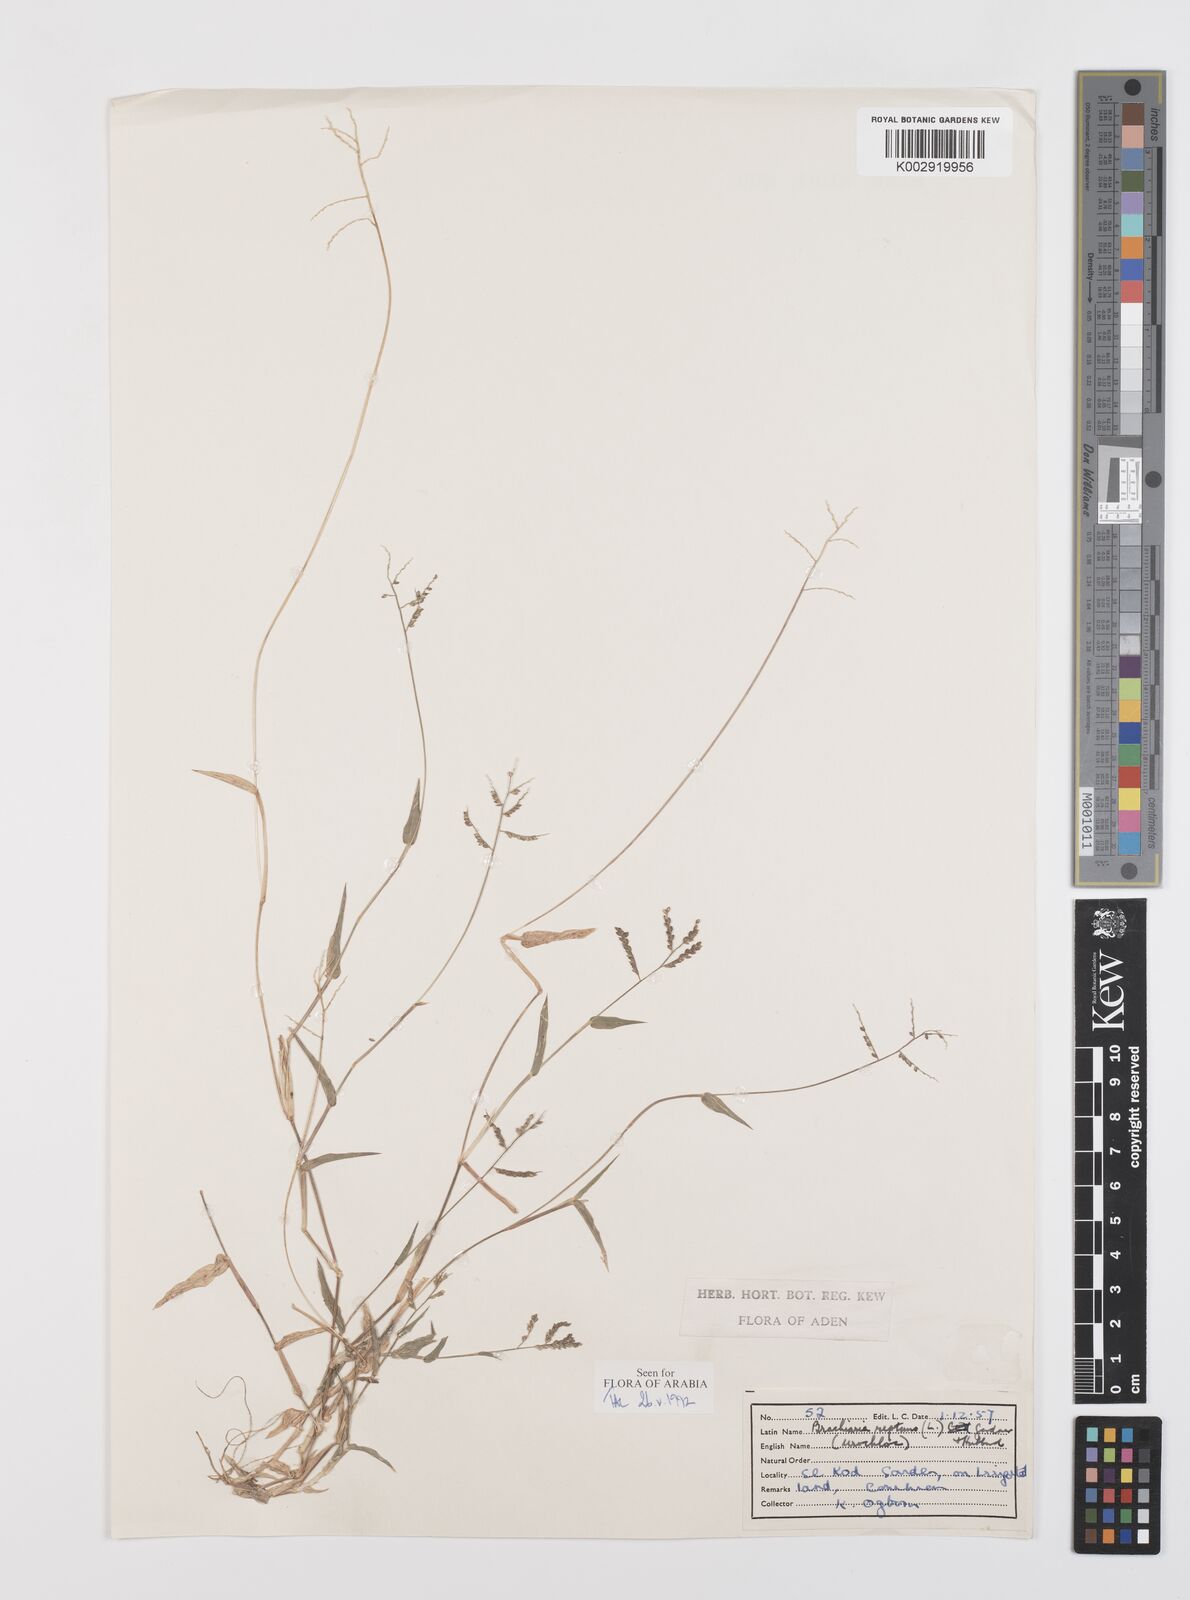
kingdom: Plantae
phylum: Tracheophyta
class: Liliopsida
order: Poales
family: Poaceae
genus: Urochloa
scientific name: Urochloa reptans
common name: Sprawling signalgrass
